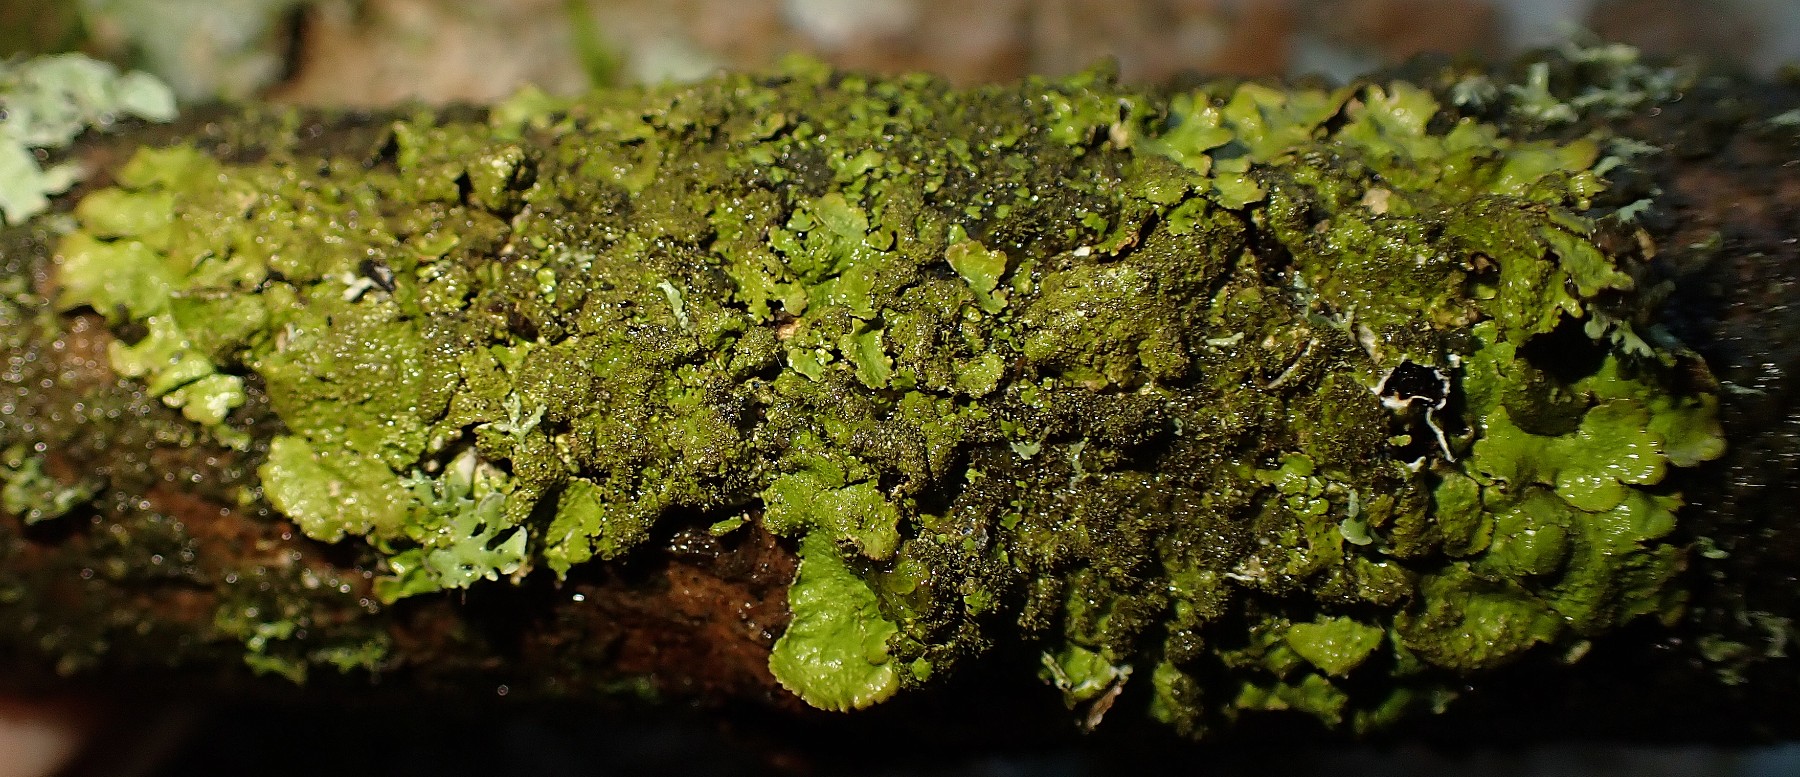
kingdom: Fungi
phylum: Ascomycota
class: Lecanoromycetes
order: Lecanorales
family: Parmeliaceae
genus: Melanelixia
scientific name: Melanelixia glabratula
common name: glinsende skållav
